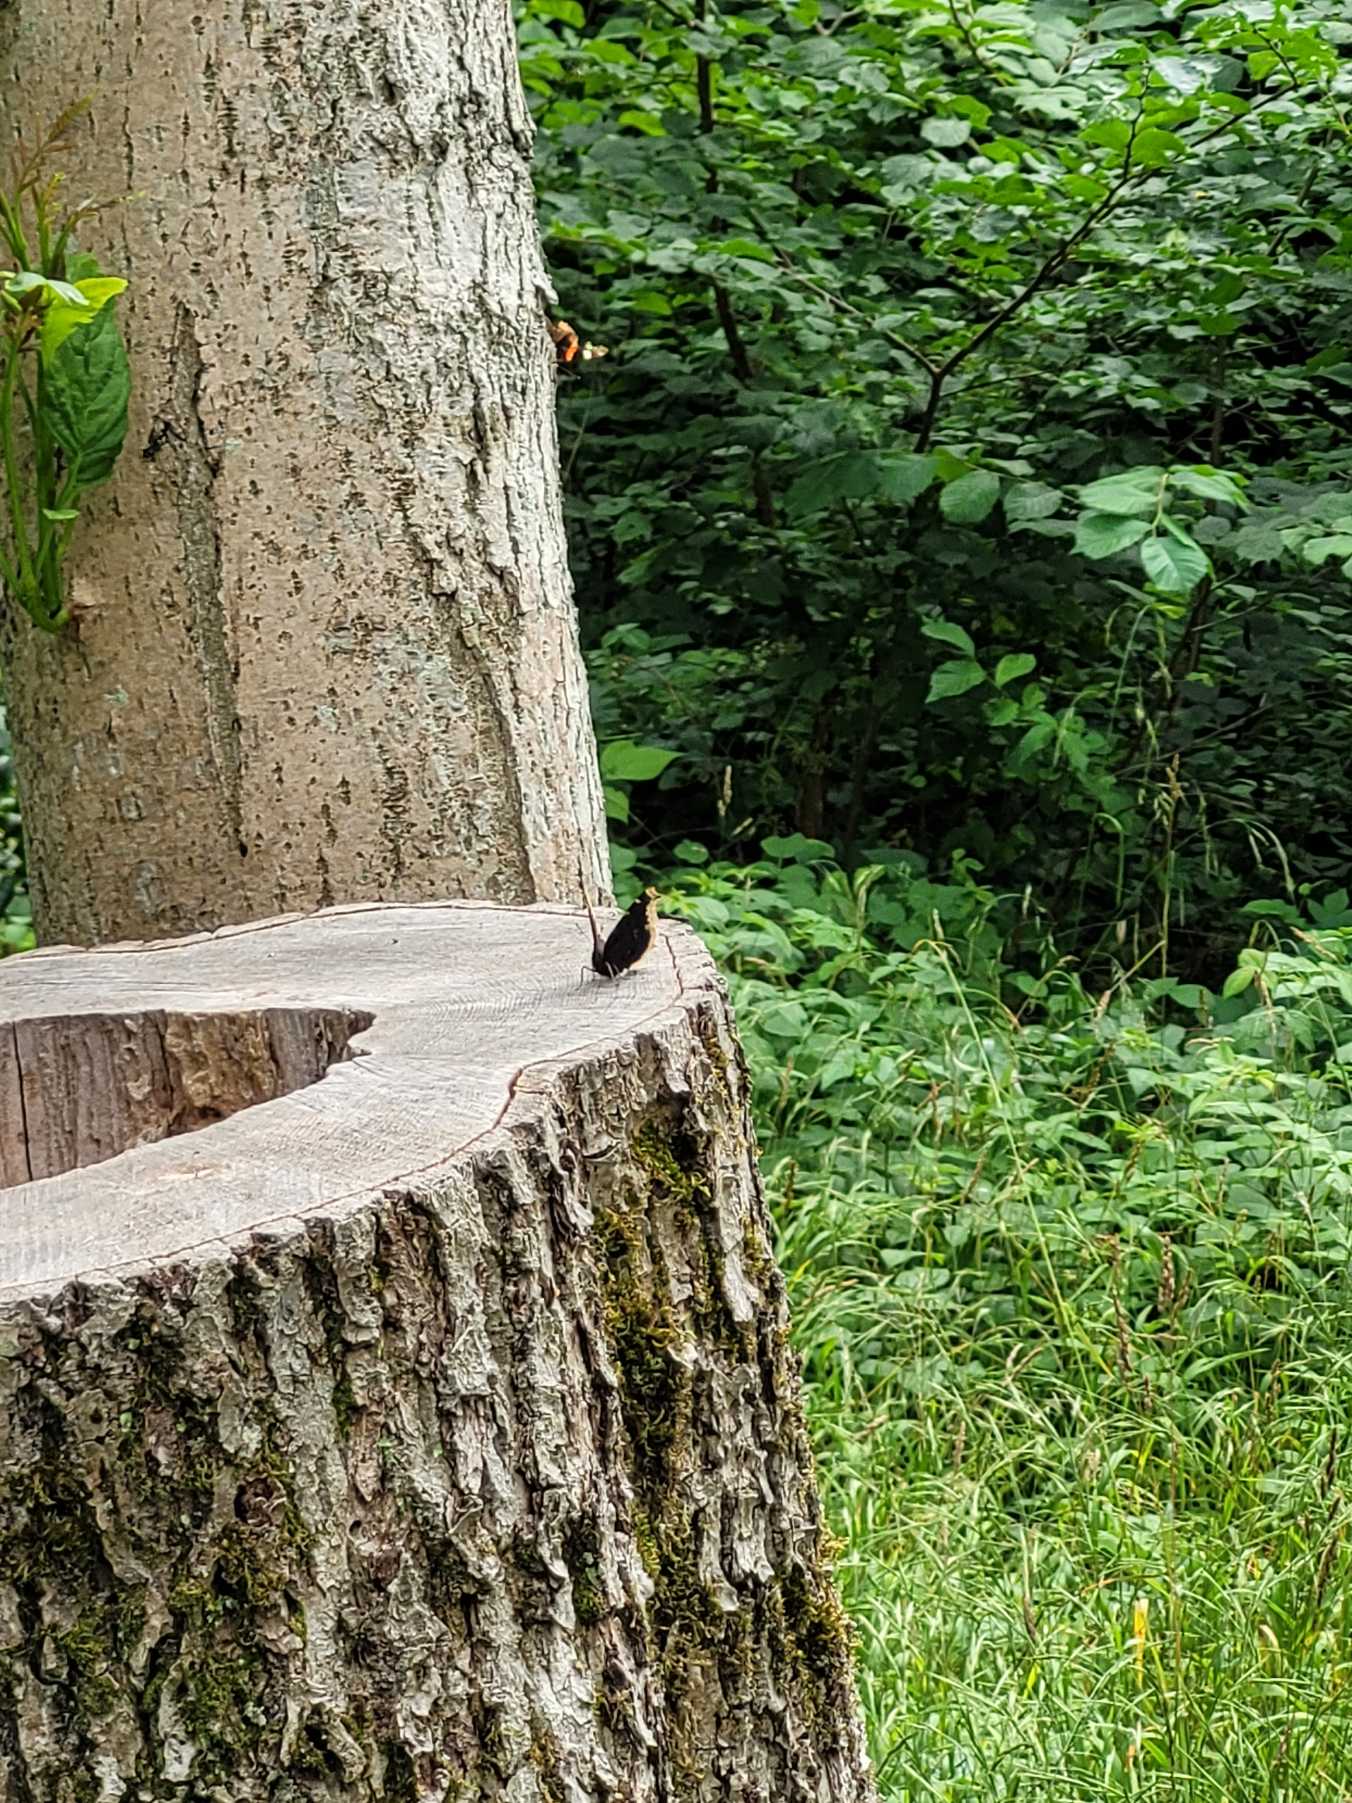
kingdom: Animalia
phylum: Arthropoda
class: Insecta
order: Lepidoptera
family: Nymphalidae
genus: Nymphalis
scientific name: Nymphalis antiopa
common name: Sørgekåbe
